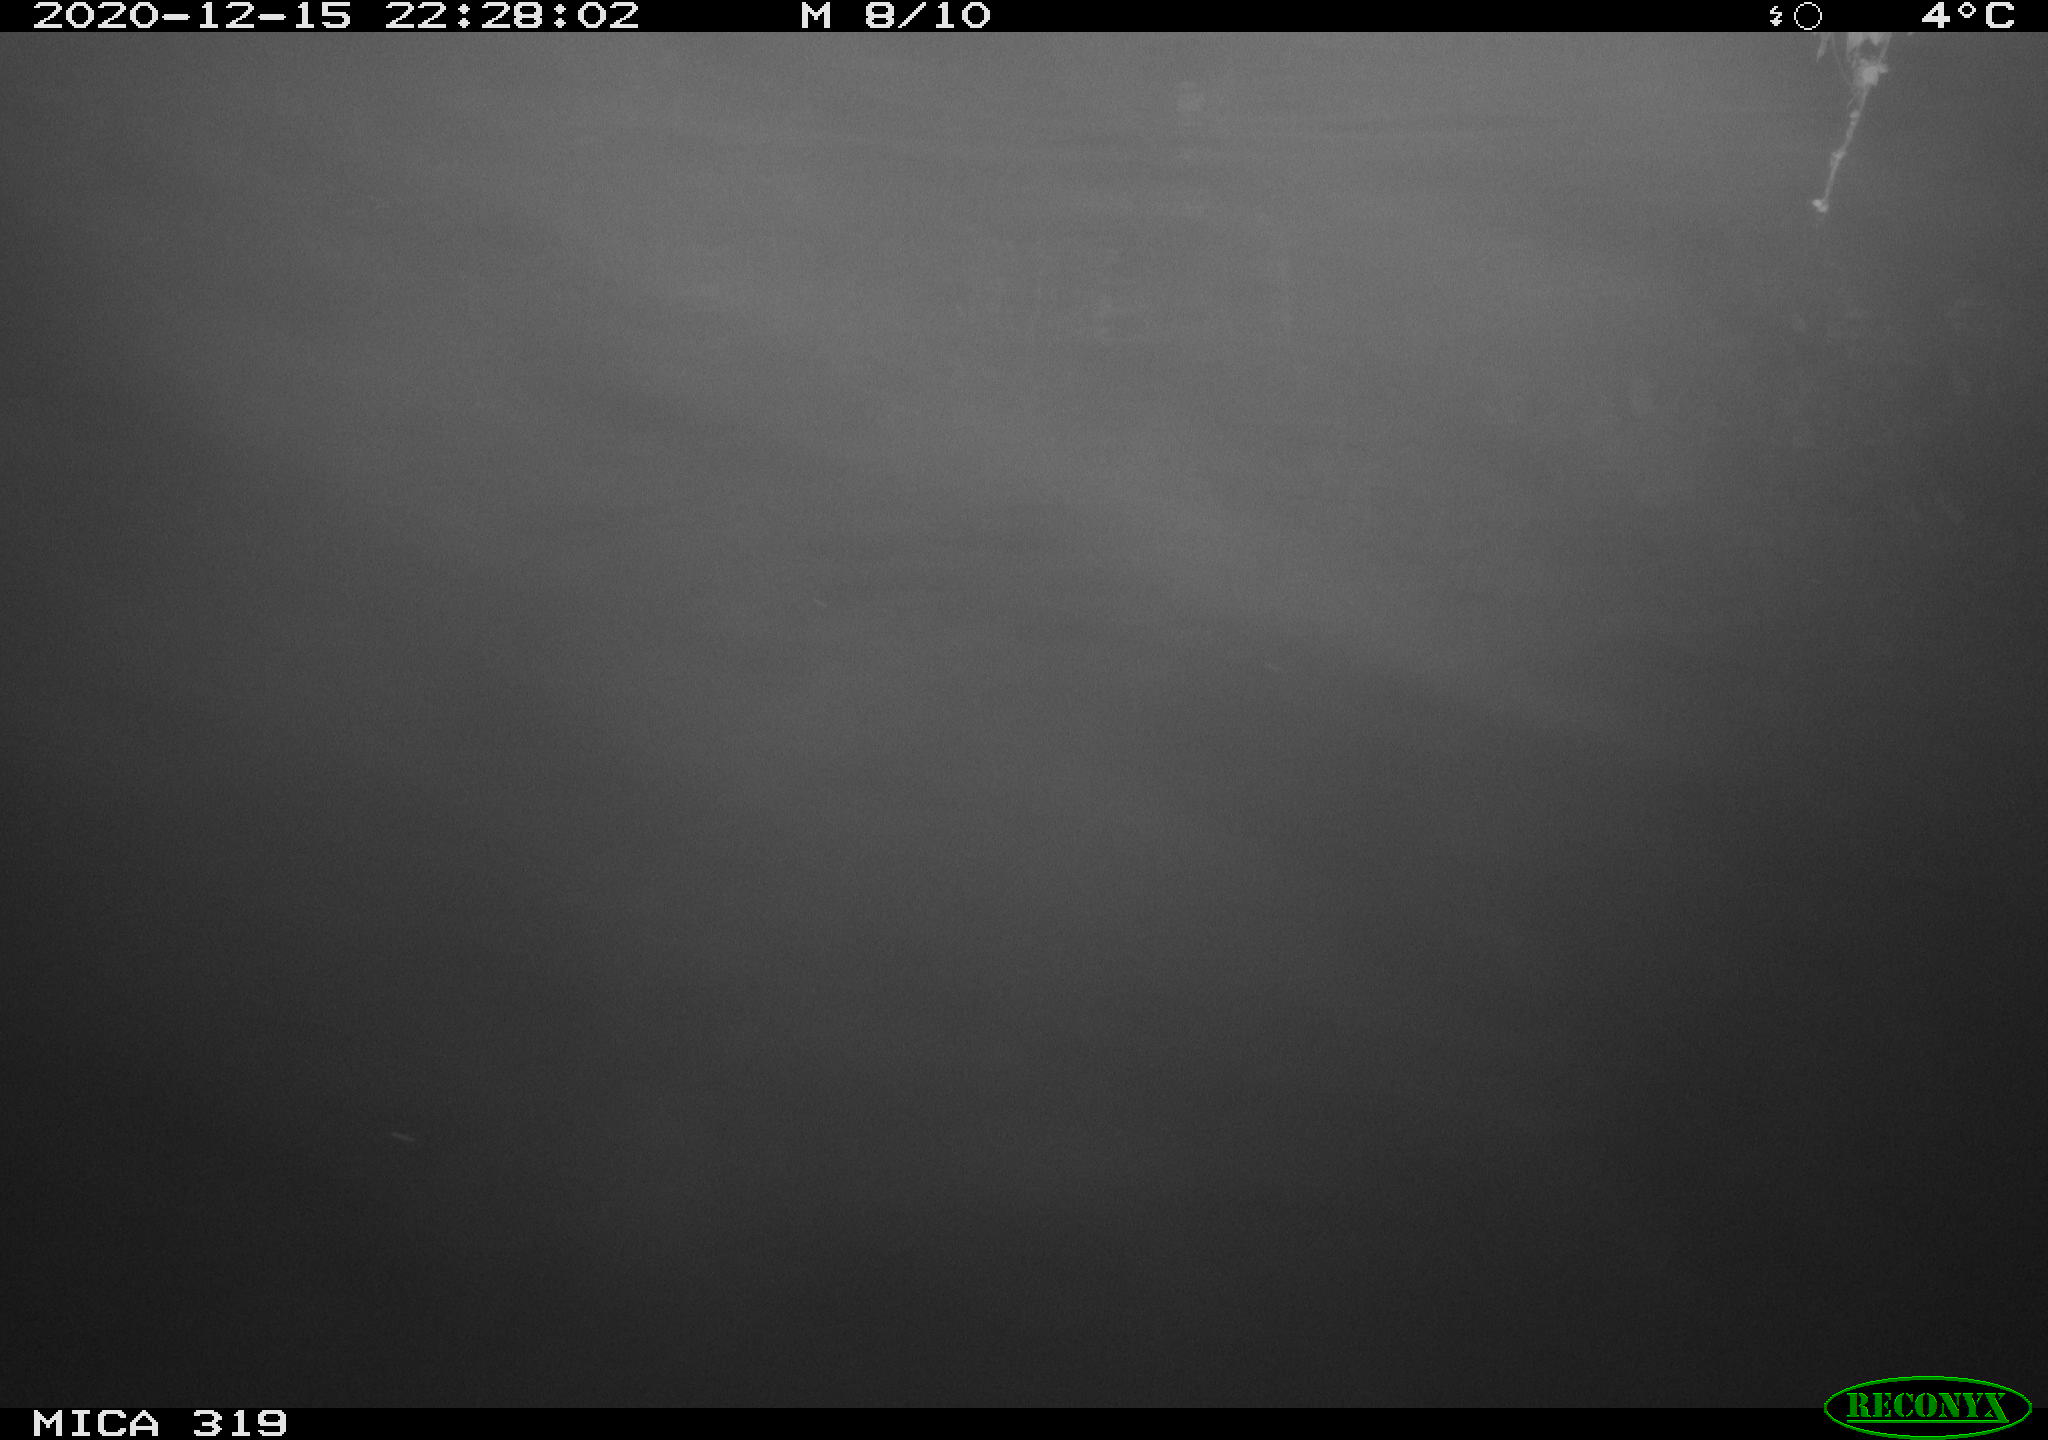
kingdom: Animalia
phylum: Chordata
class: Mammalia
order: Rodentia
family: Muridae
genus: Rattus
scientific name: Rattus norvegicus
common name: Brown rat
